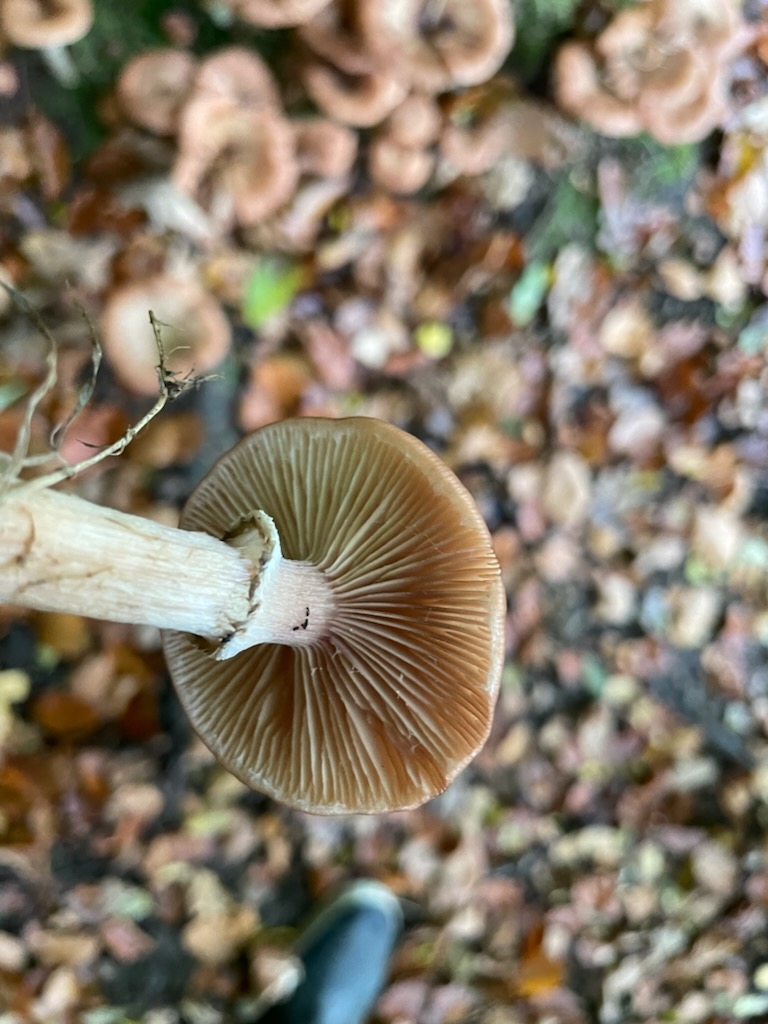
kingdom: Fungi
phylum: Basidiomycota
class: Agaricomycetes
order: Agaricales
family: Physalacriaceae
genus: Armillaria
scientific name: Armillaria
